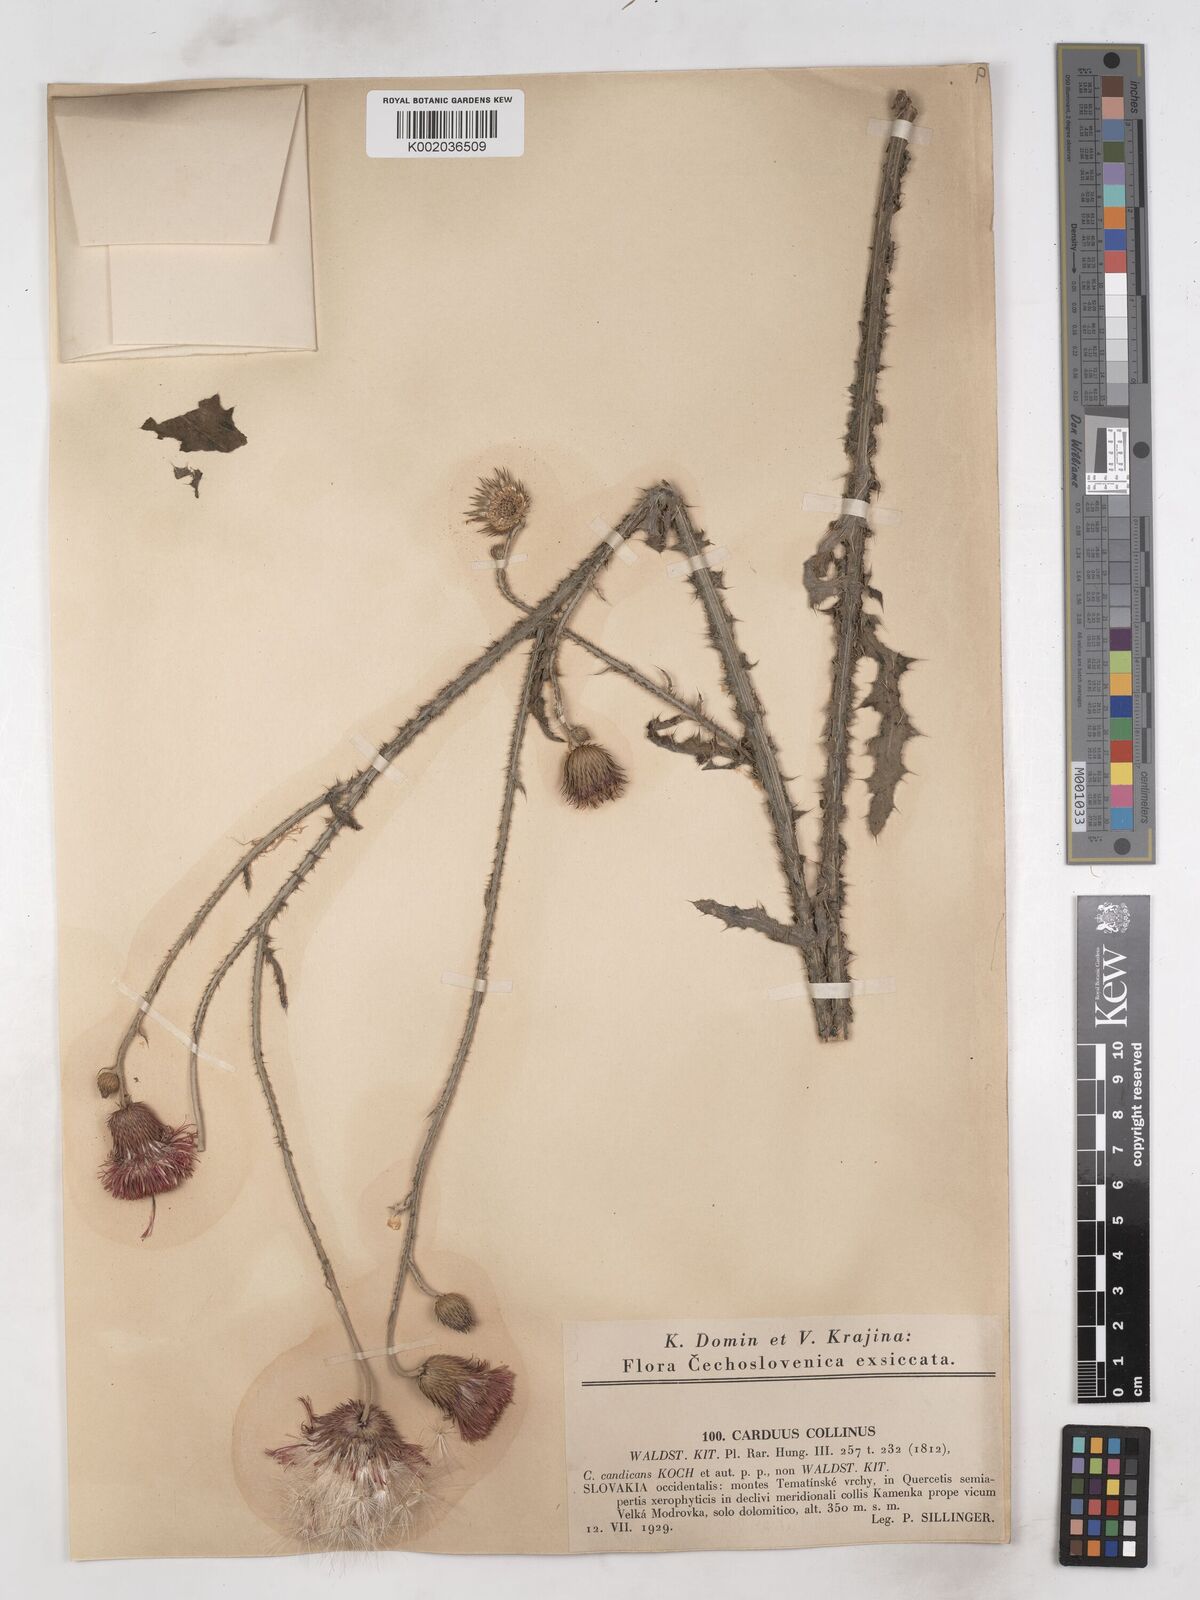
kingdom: Plantae
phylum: Tracheophyta
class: Magnoliopsida
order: Asterales
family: Asteraceae
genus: Carduus
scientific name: Carduus collinus
